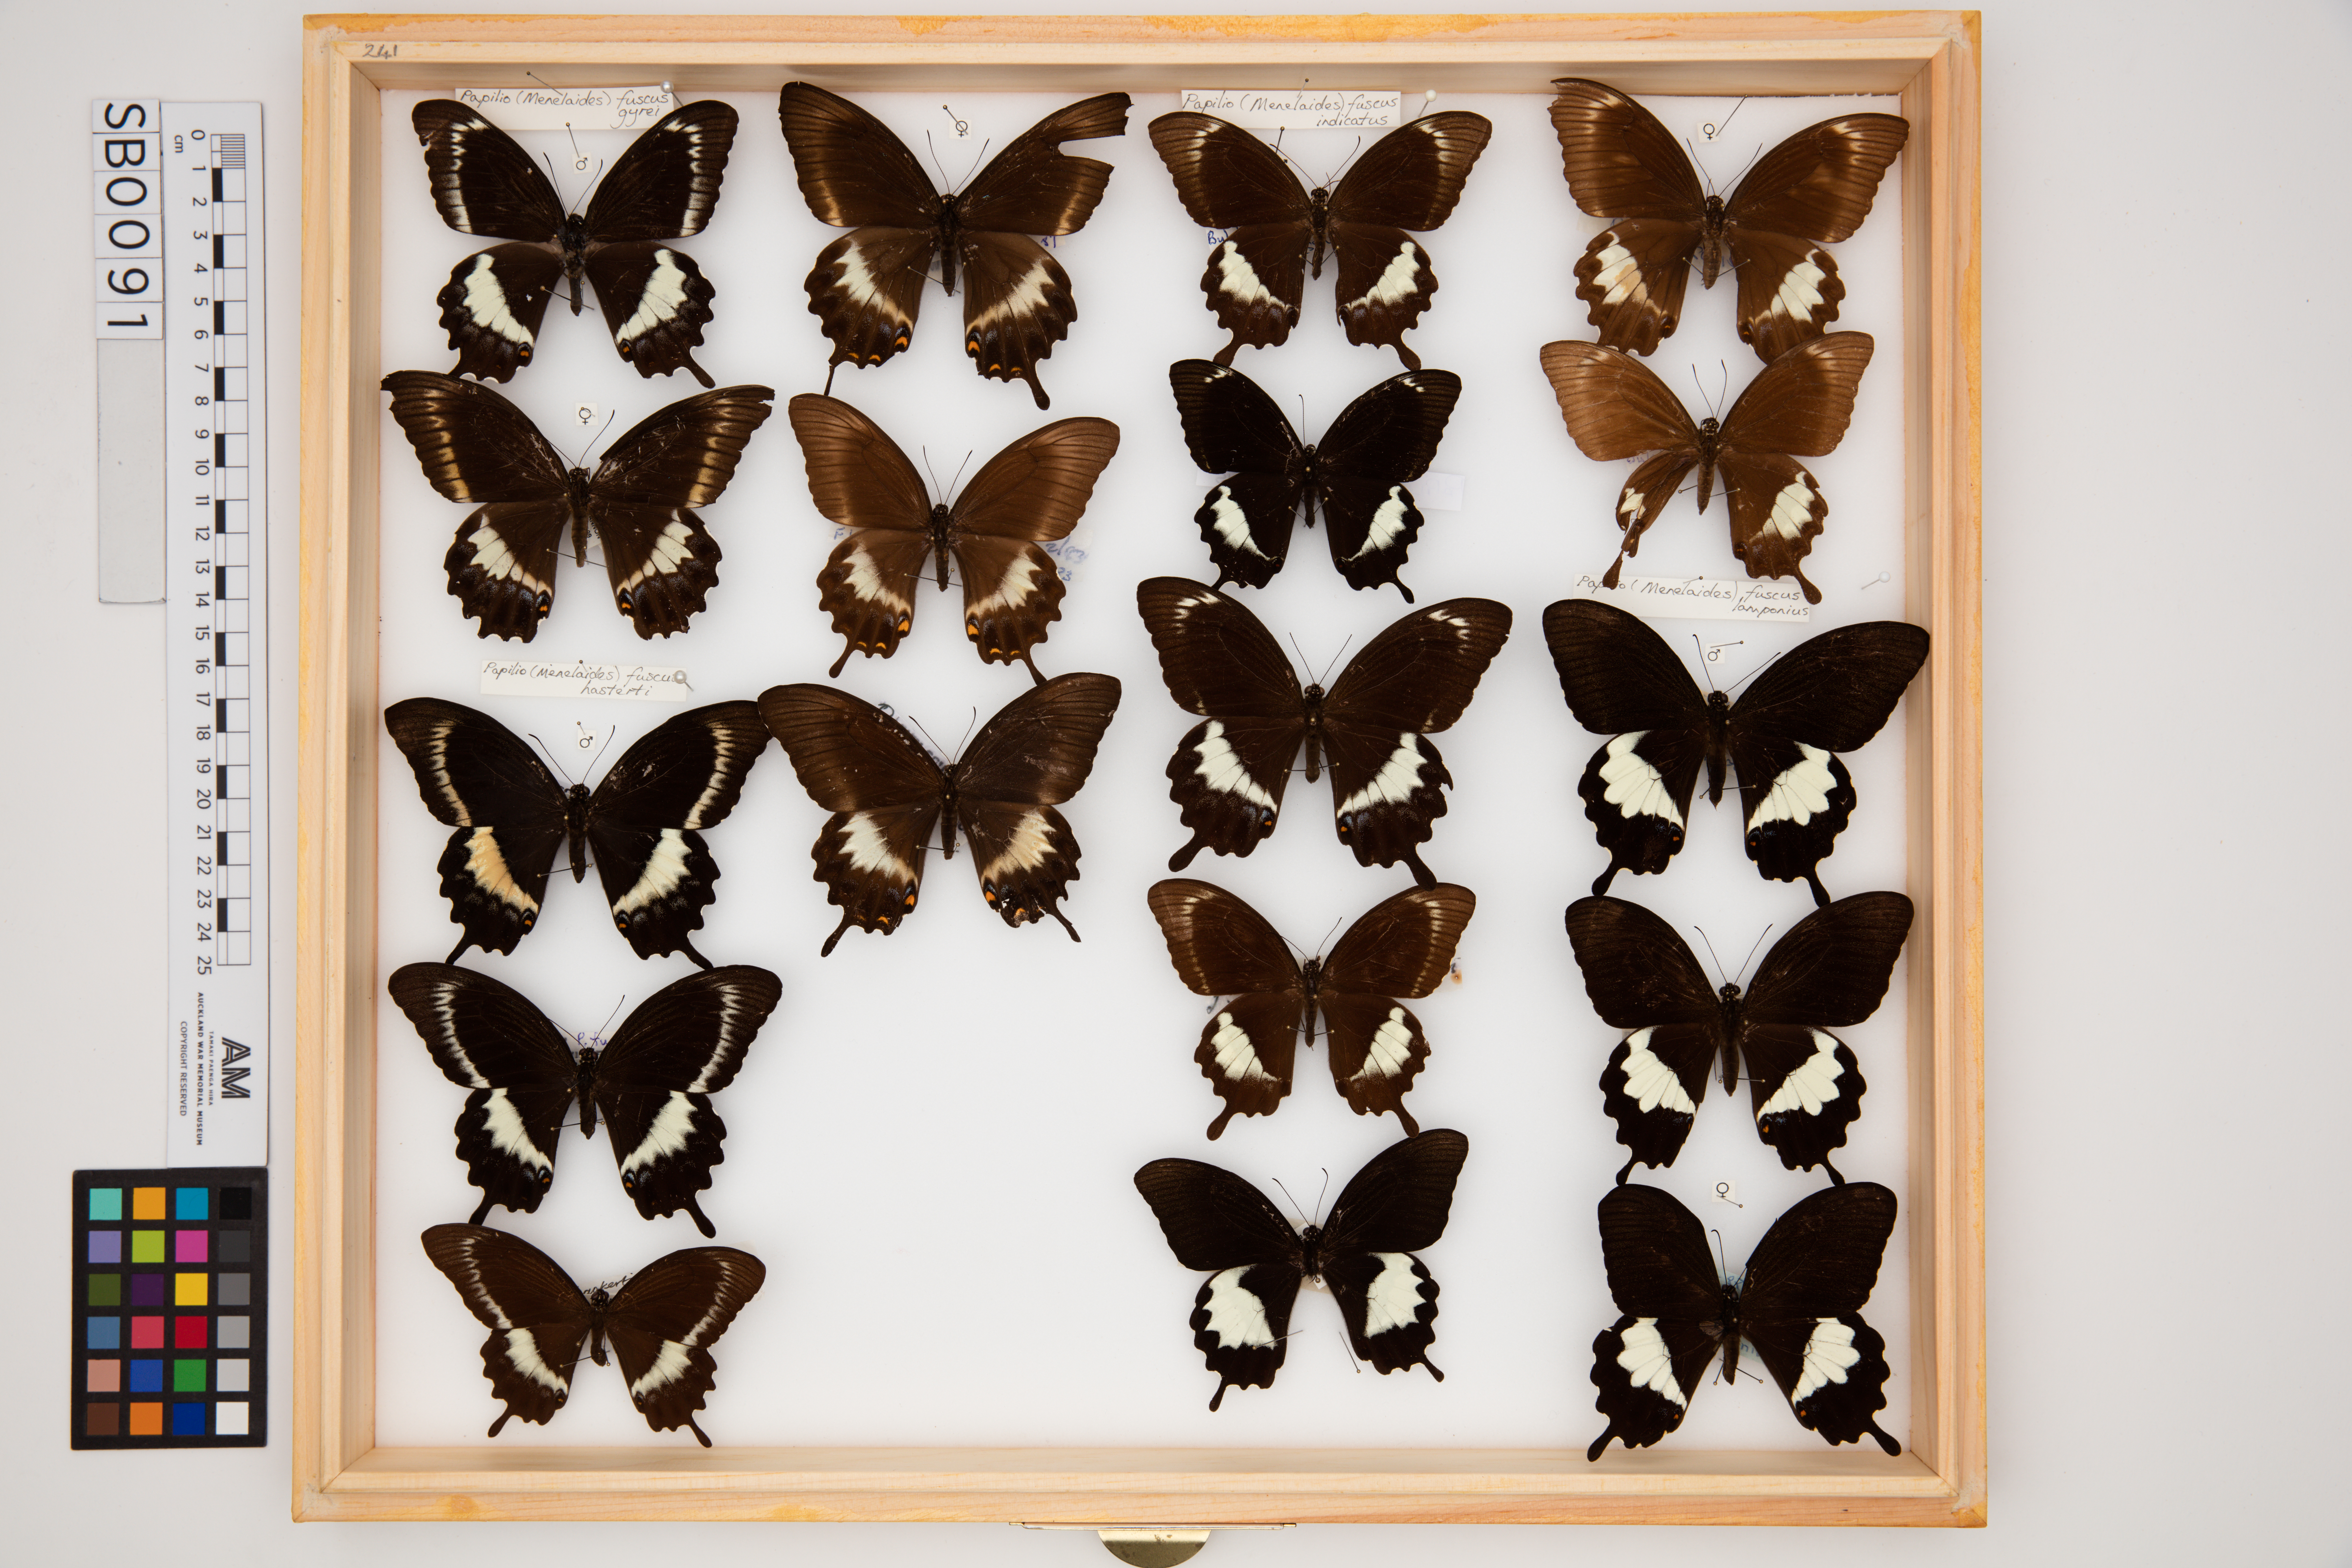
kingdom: Animalia
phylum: Arthropoda
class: Insecta
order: Lepidoptera
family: Papilionidae
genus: Papilio
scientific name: Papilio fuscus
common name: Fuscous swallowtail
